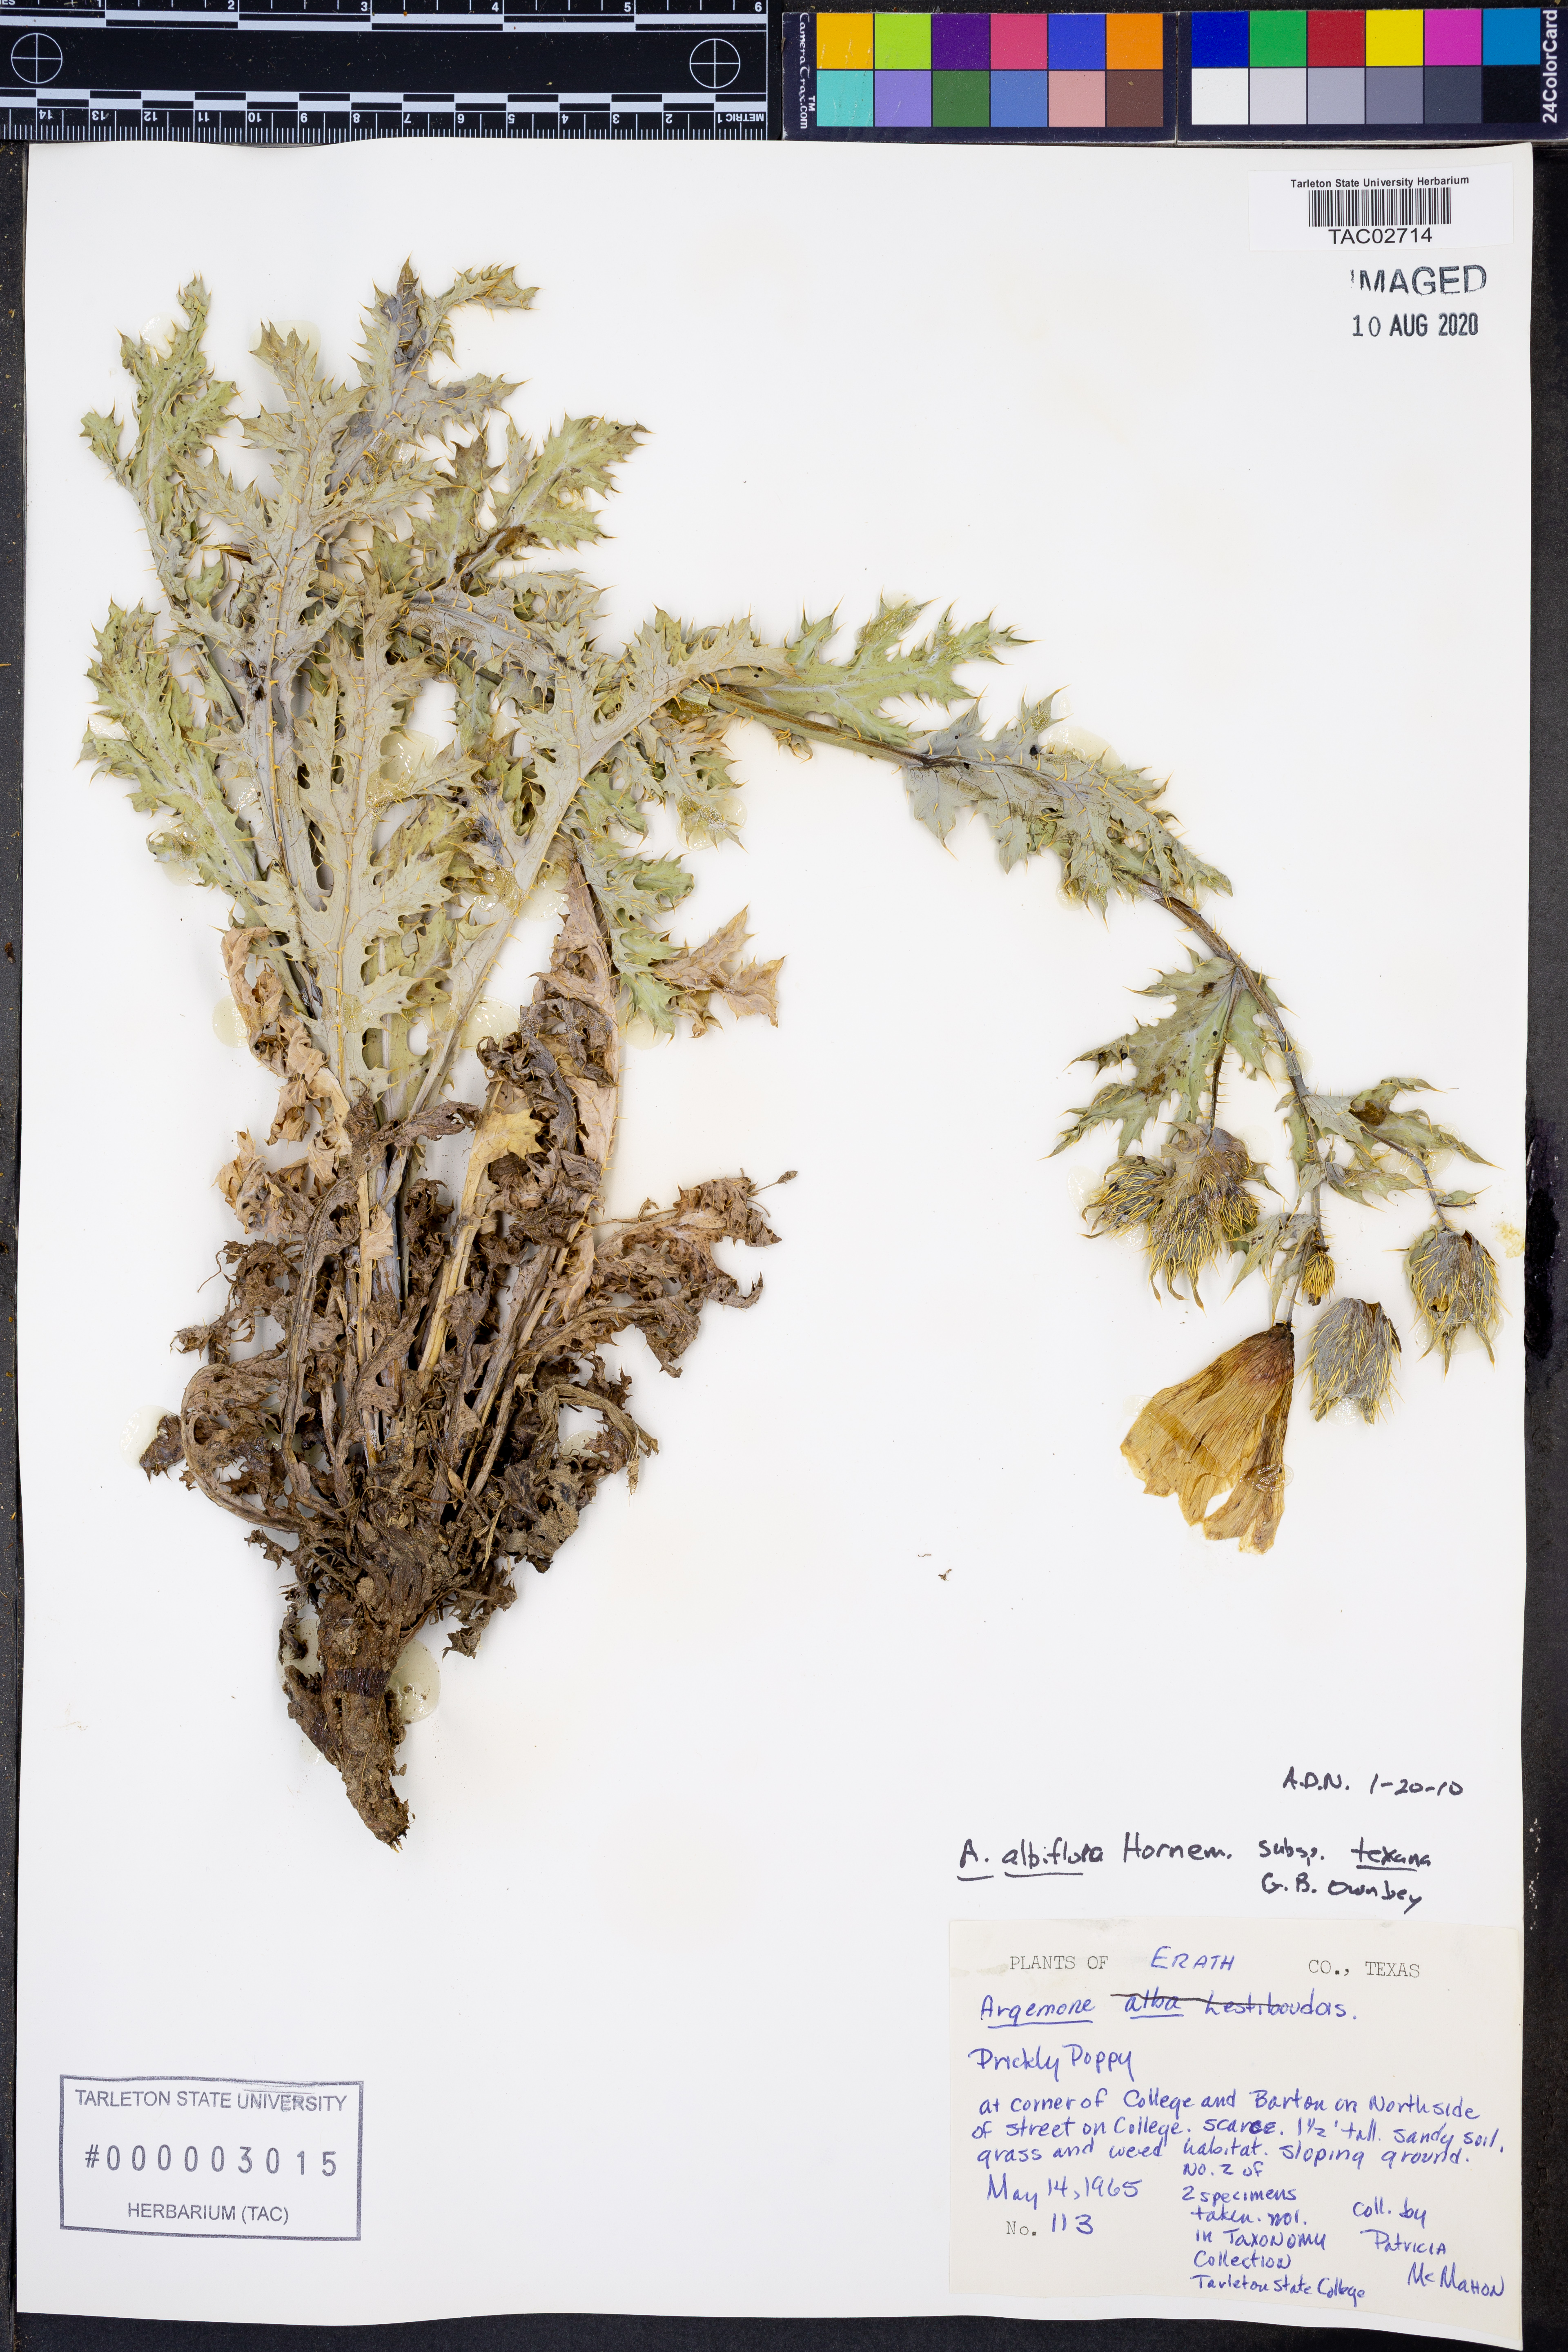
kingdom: Plantae
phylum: Tracheophyta
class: Magnoliopsida
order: Ranunculales
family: Papaveraceae
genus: Argemone
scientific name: Argemone albiflora
